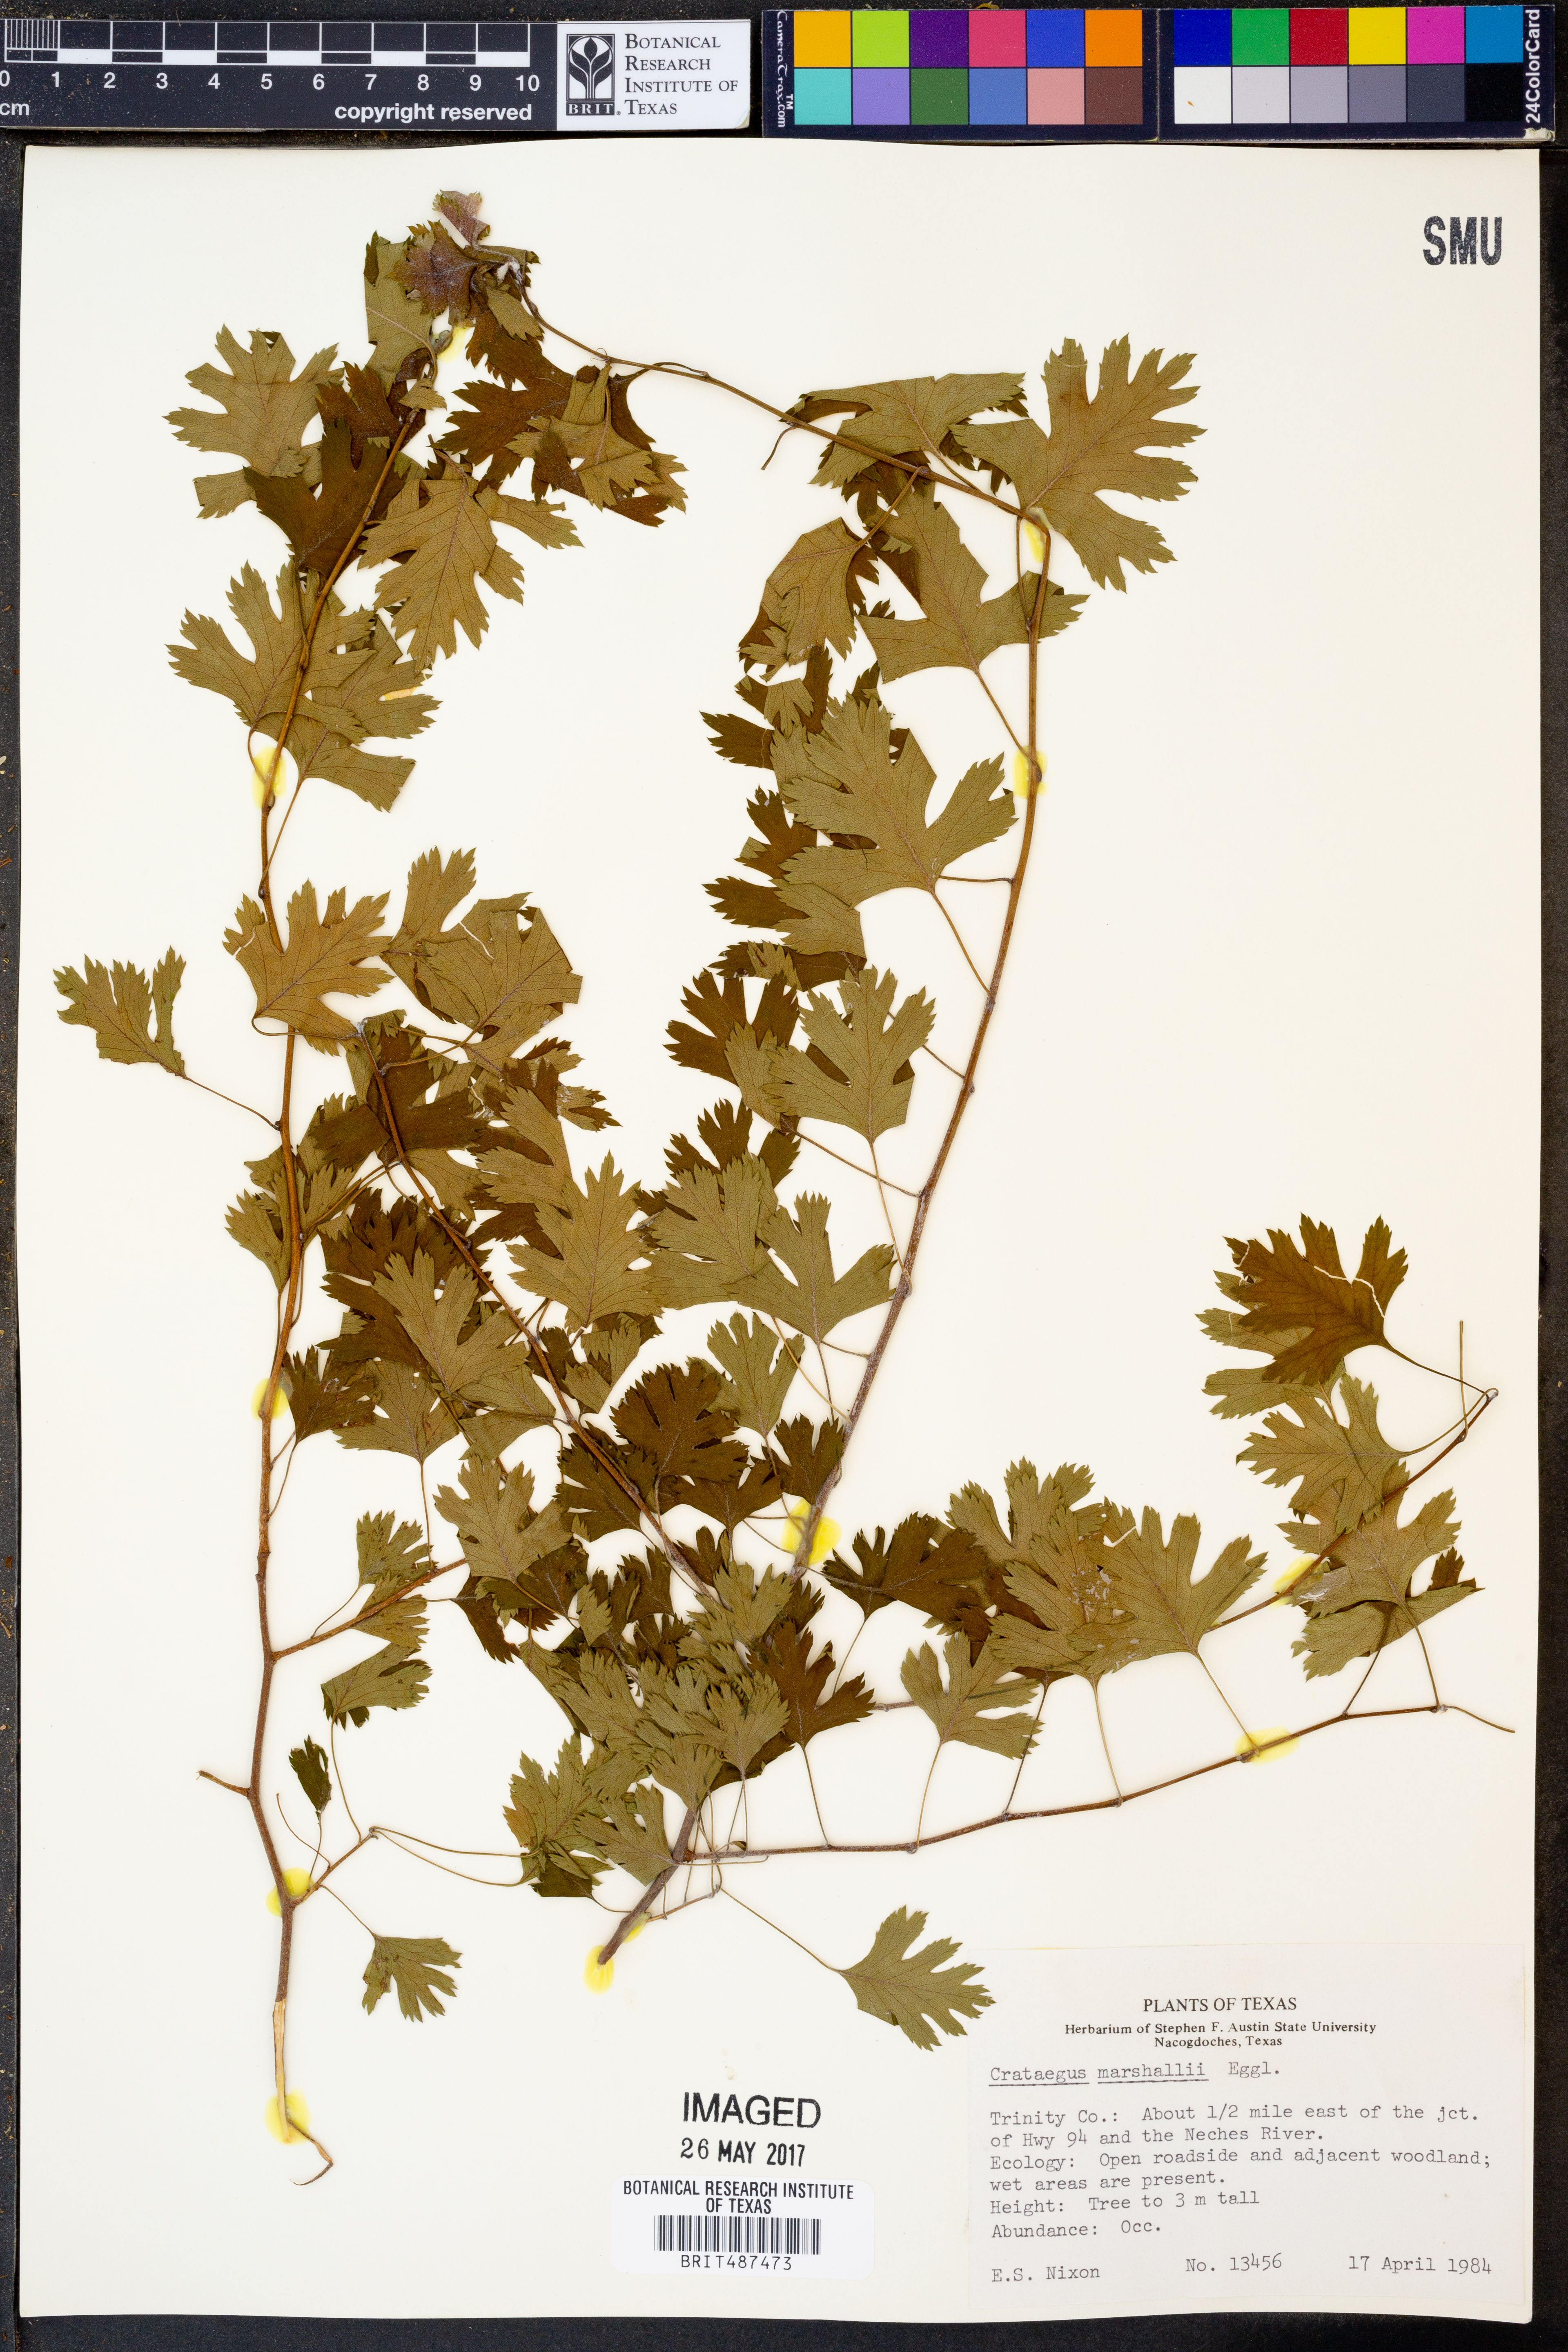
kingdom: Plantae
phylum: Tracheophyta
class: Magnoliopsida
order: Rosales
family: Rosaceae
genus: Crataegus
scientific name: Crataegus marshallii
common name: Parsley-hawthorn
